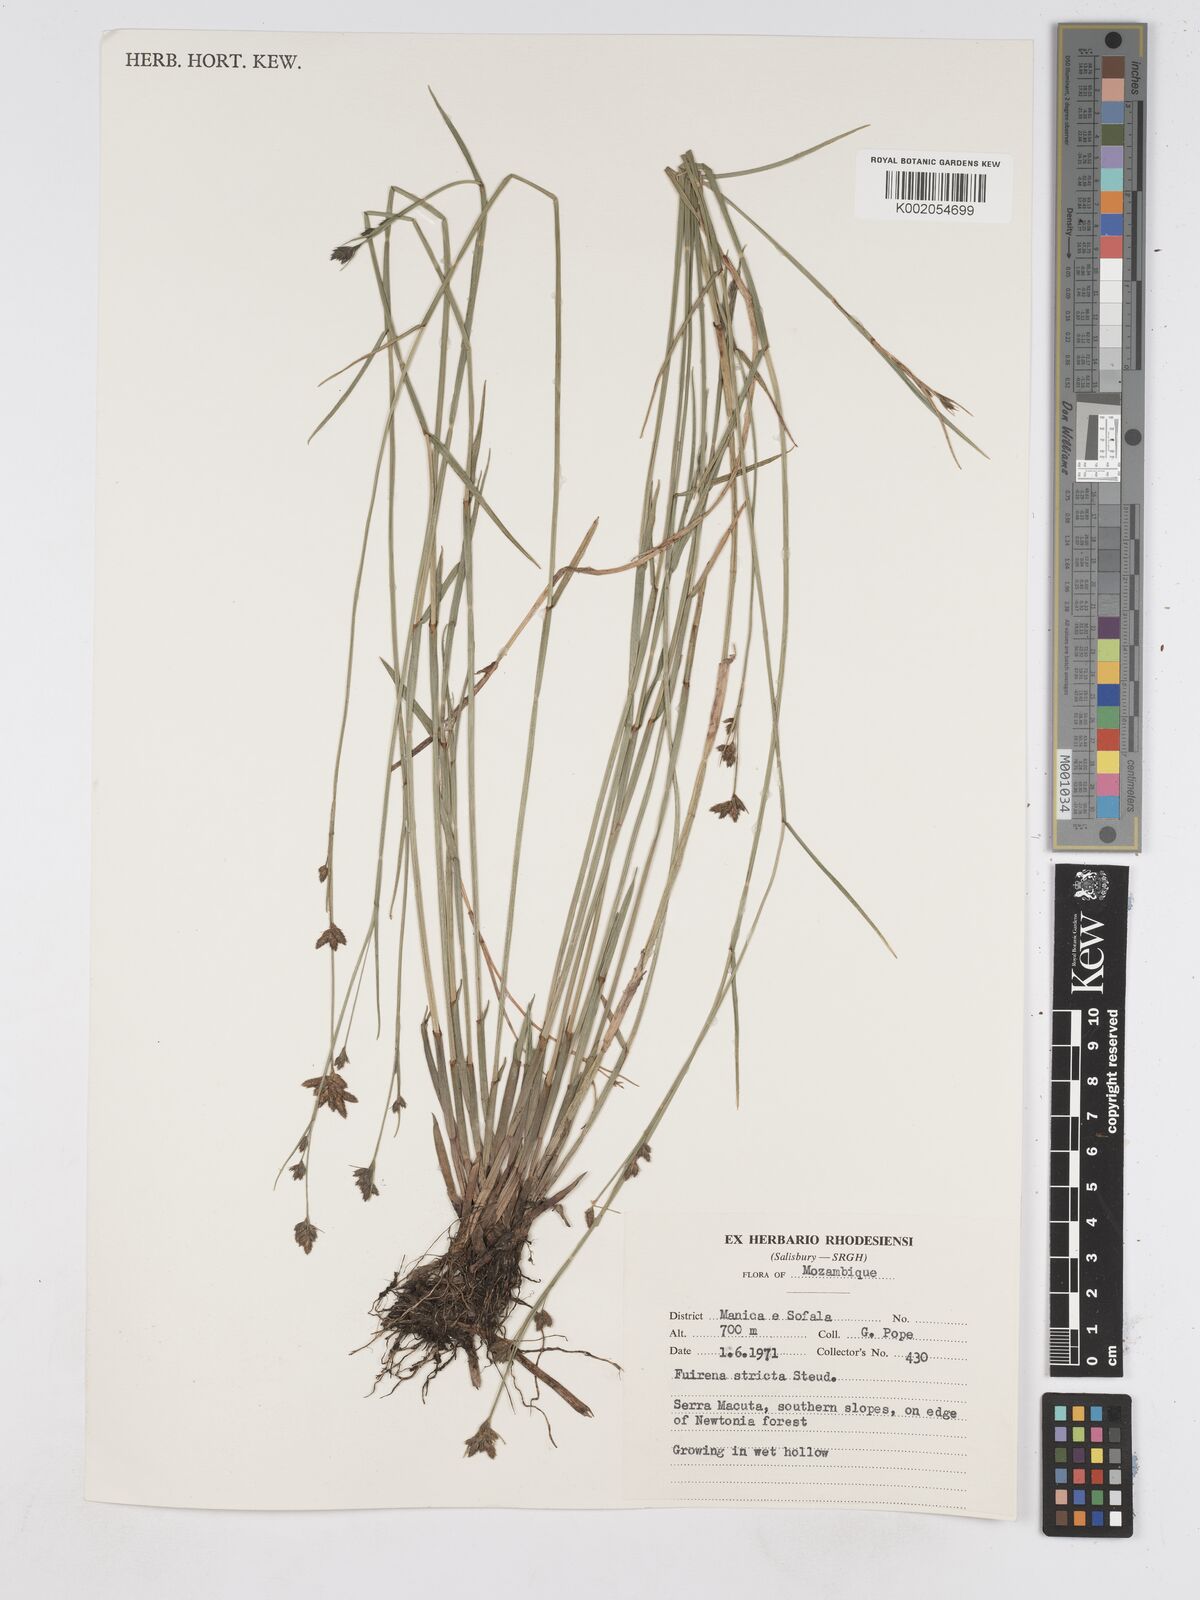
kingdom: Plantae
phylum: Tracheophyta
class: Liliopsida
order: Poales
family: Cyperaceae
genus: Fuirena
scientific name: Fuirena stricta
